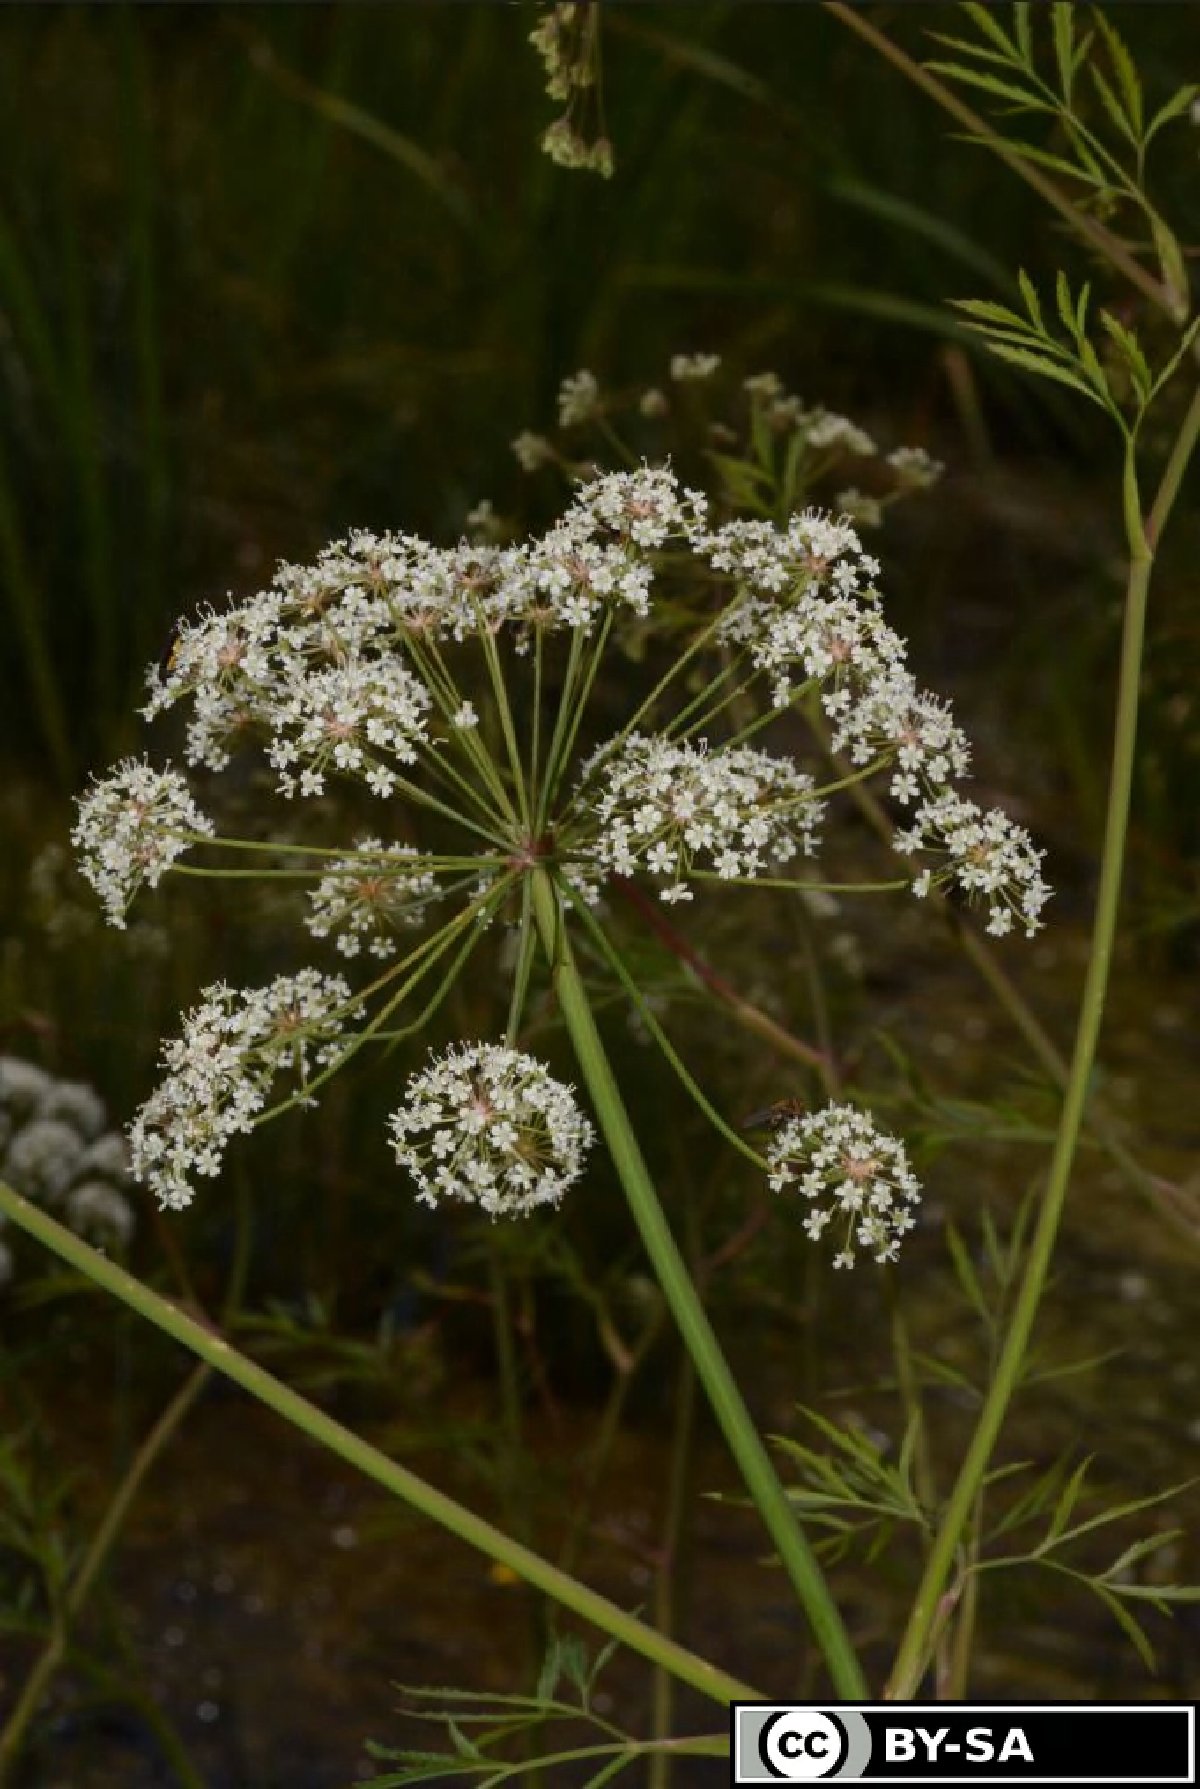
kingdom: Plantae
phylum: Tracheophyta
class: Magnoliopsida
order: Apiales
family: Apiaceae
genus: Cicuta
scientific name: Cicuta virosa
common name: Cowbane
